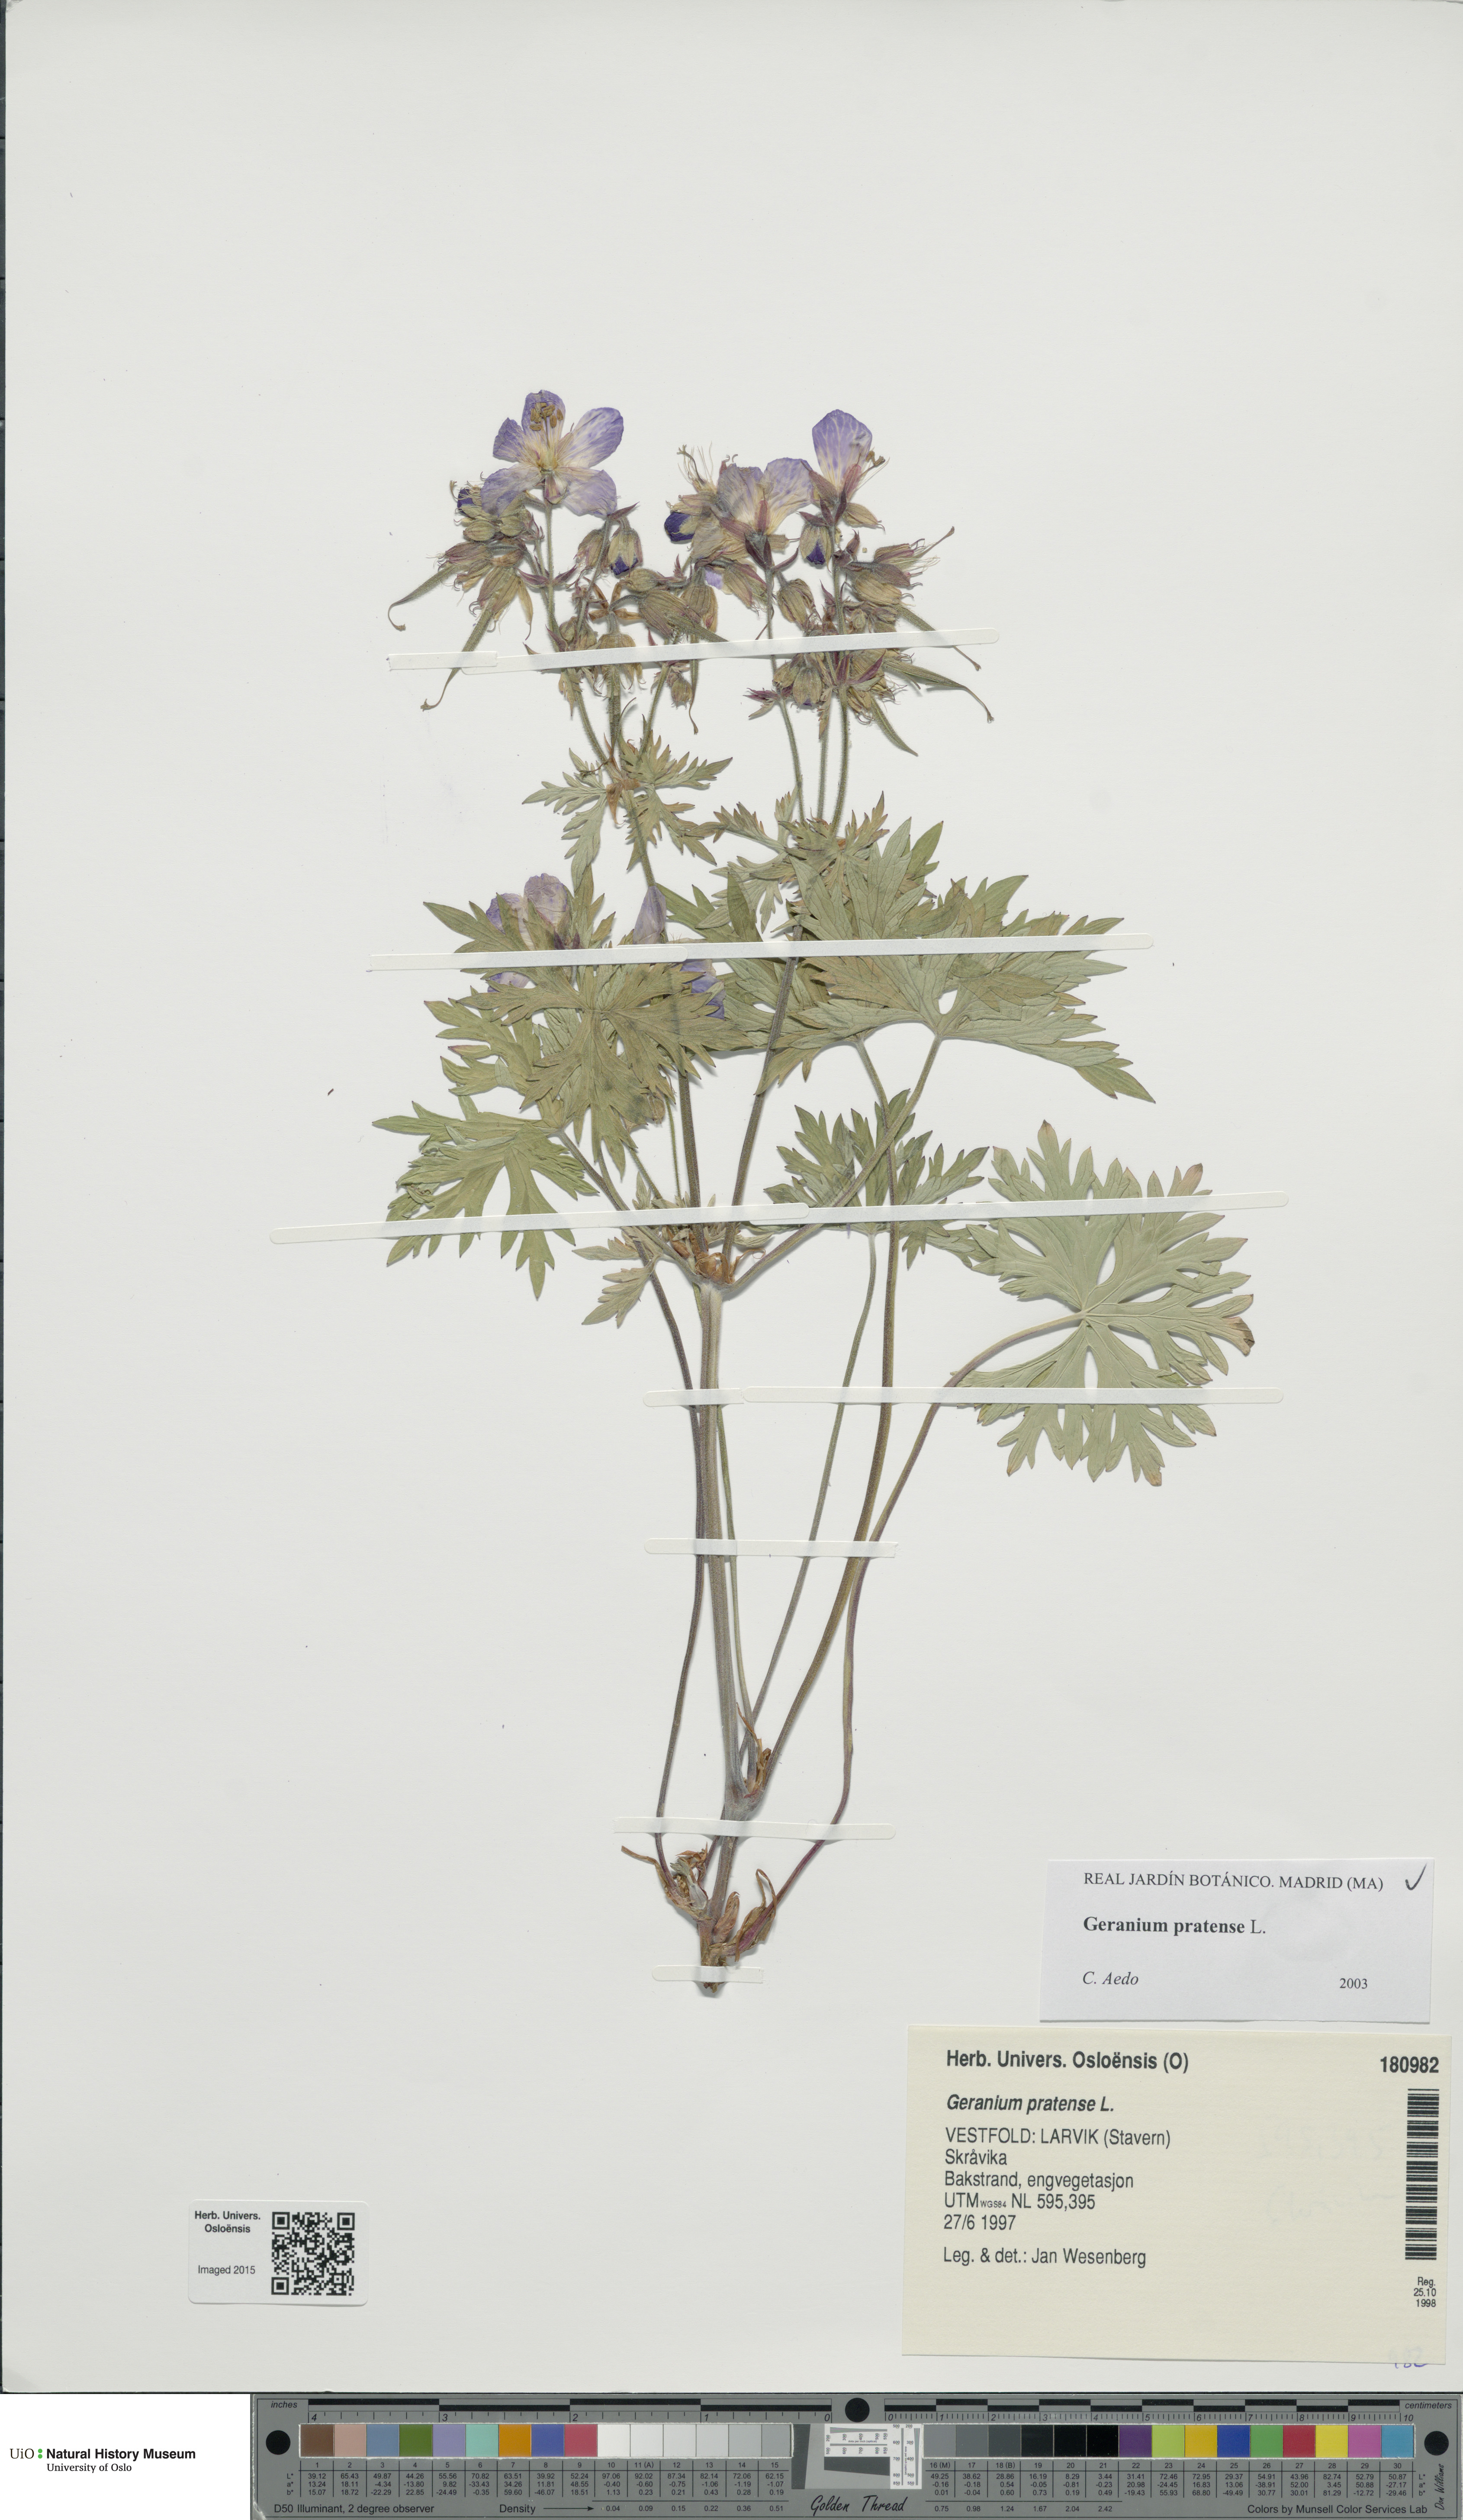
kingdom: Plantae
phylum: Tracheophyta
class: Magnoliopsida
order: Geraniales
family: Geraniaceae
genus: Geranium
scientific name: Geranium pratense
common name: Meadow crane's-bill
